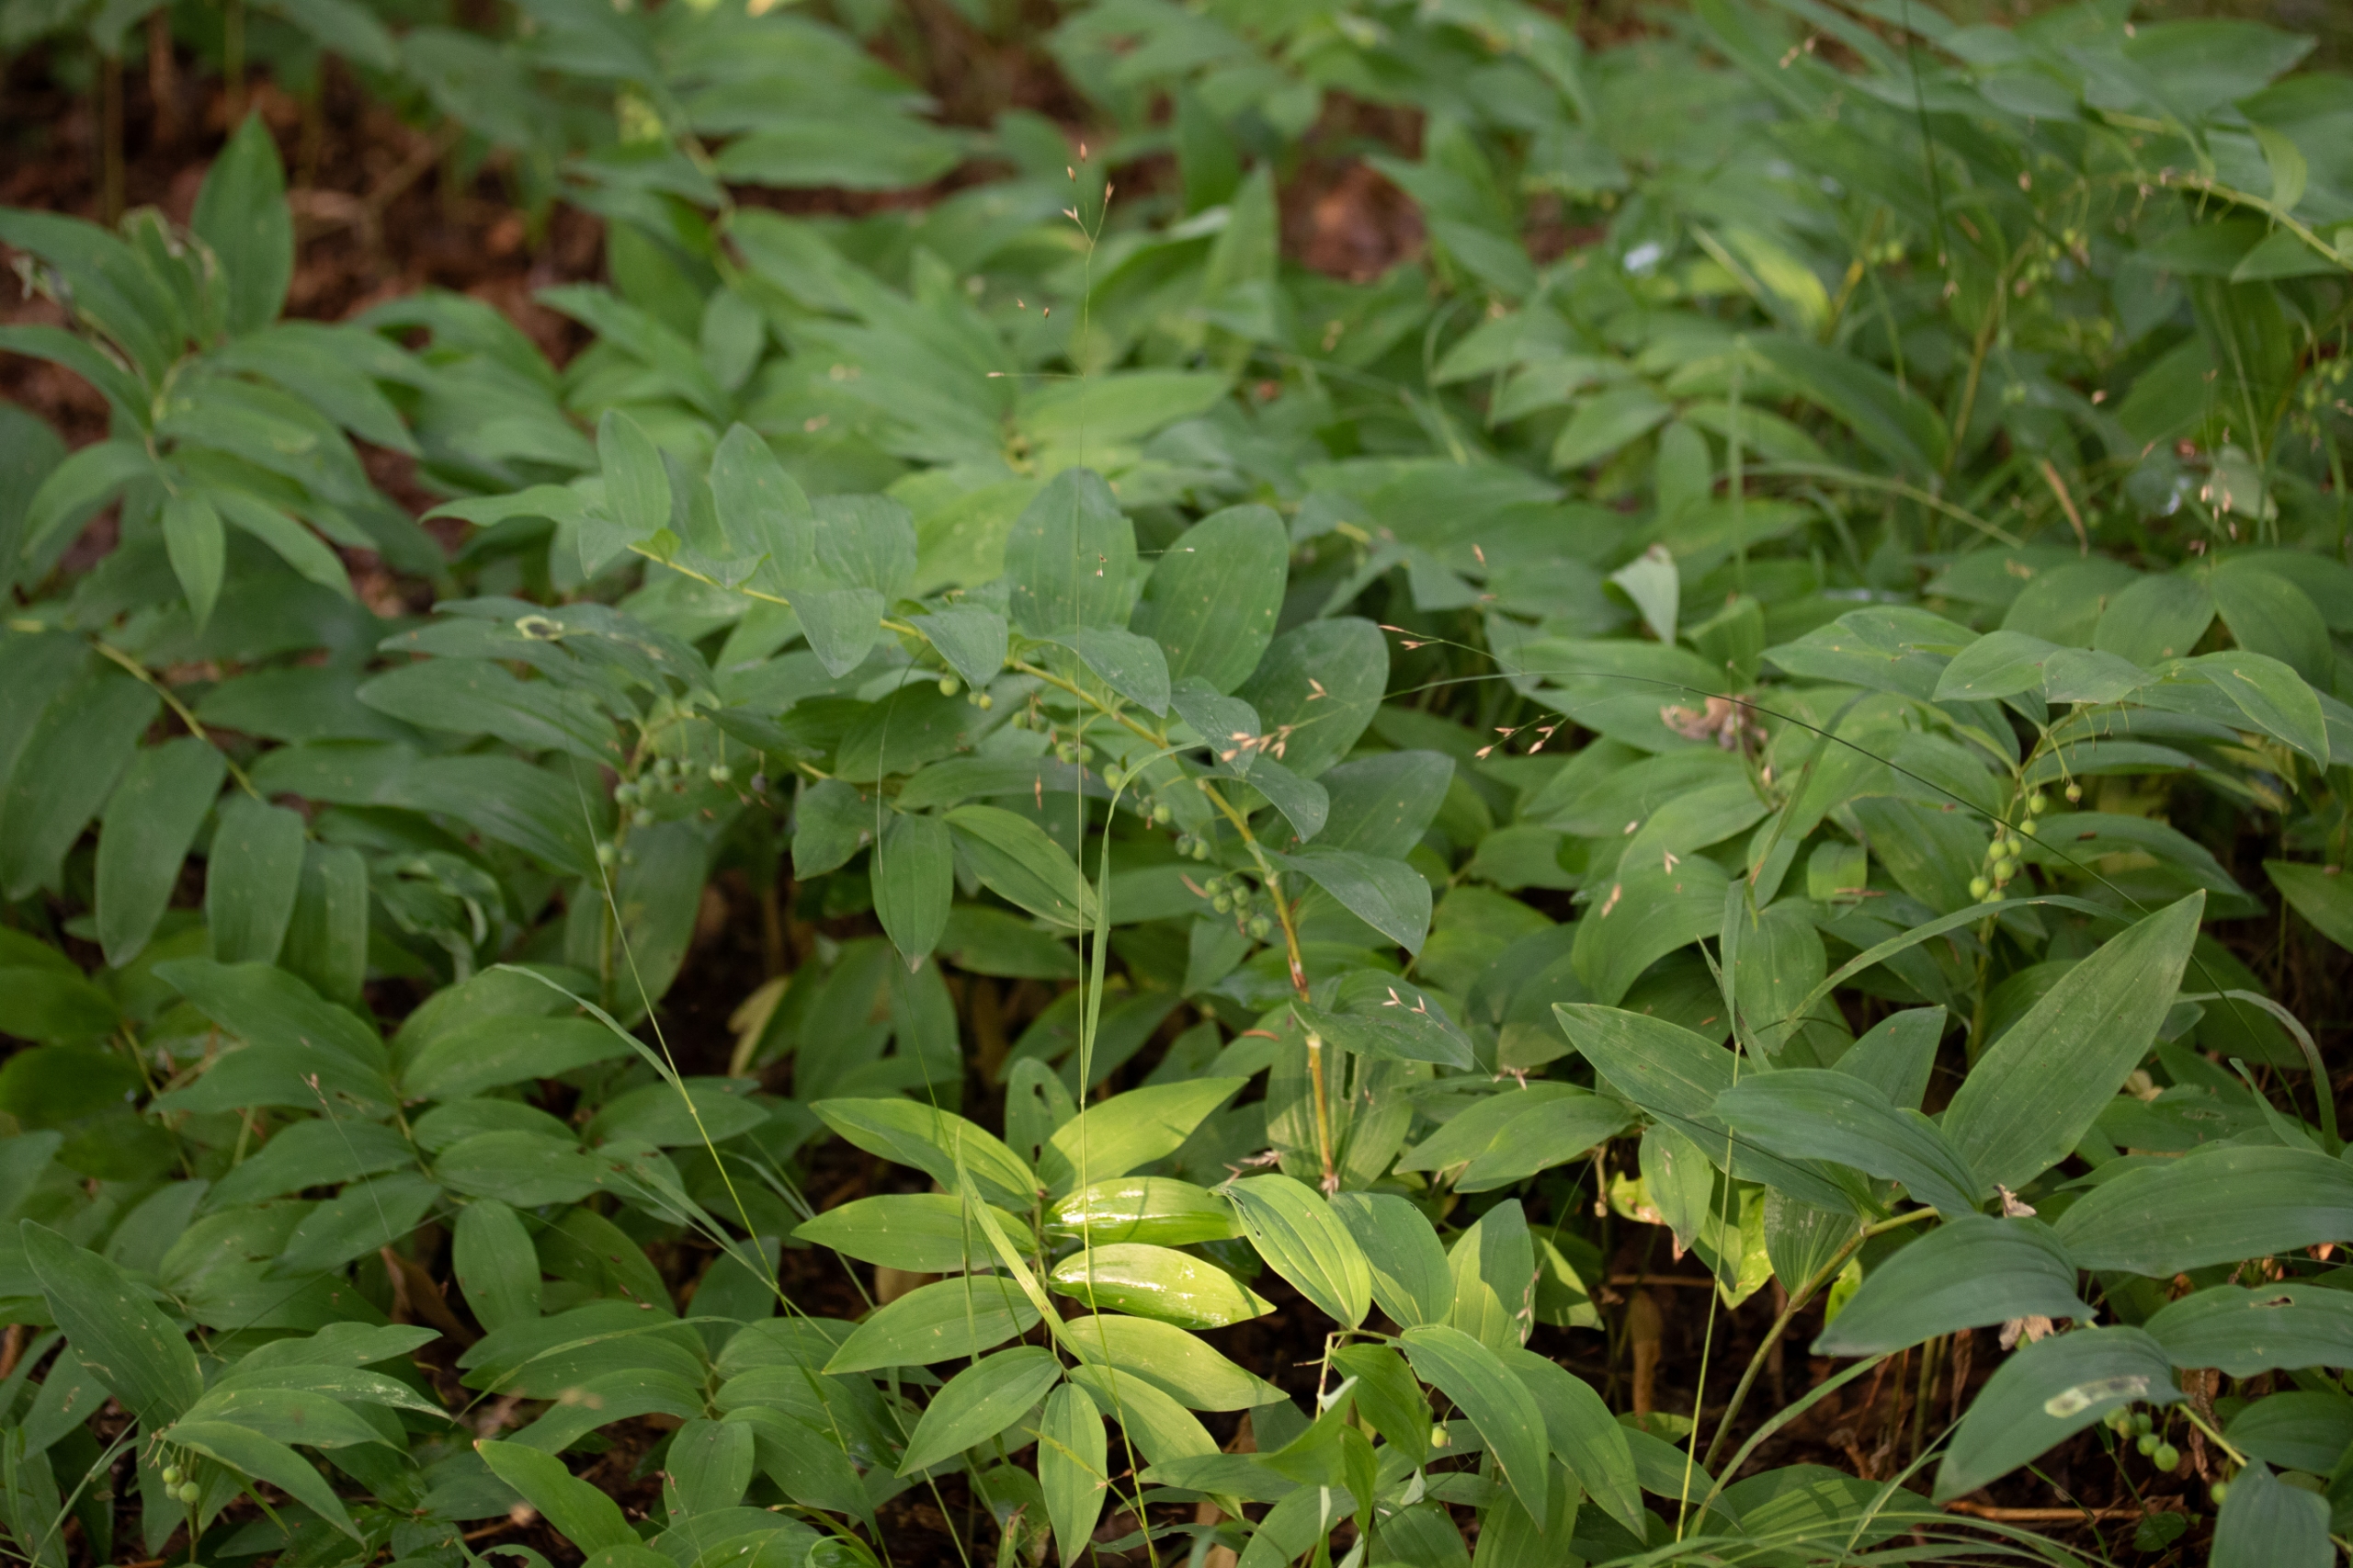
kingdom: Plantae
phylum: Tracheophyta
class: Liliopsida
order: Asparagales
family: Asparagaceae
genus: Polygonatum
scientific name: Polygonatum multiflorum
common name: Stor konval
